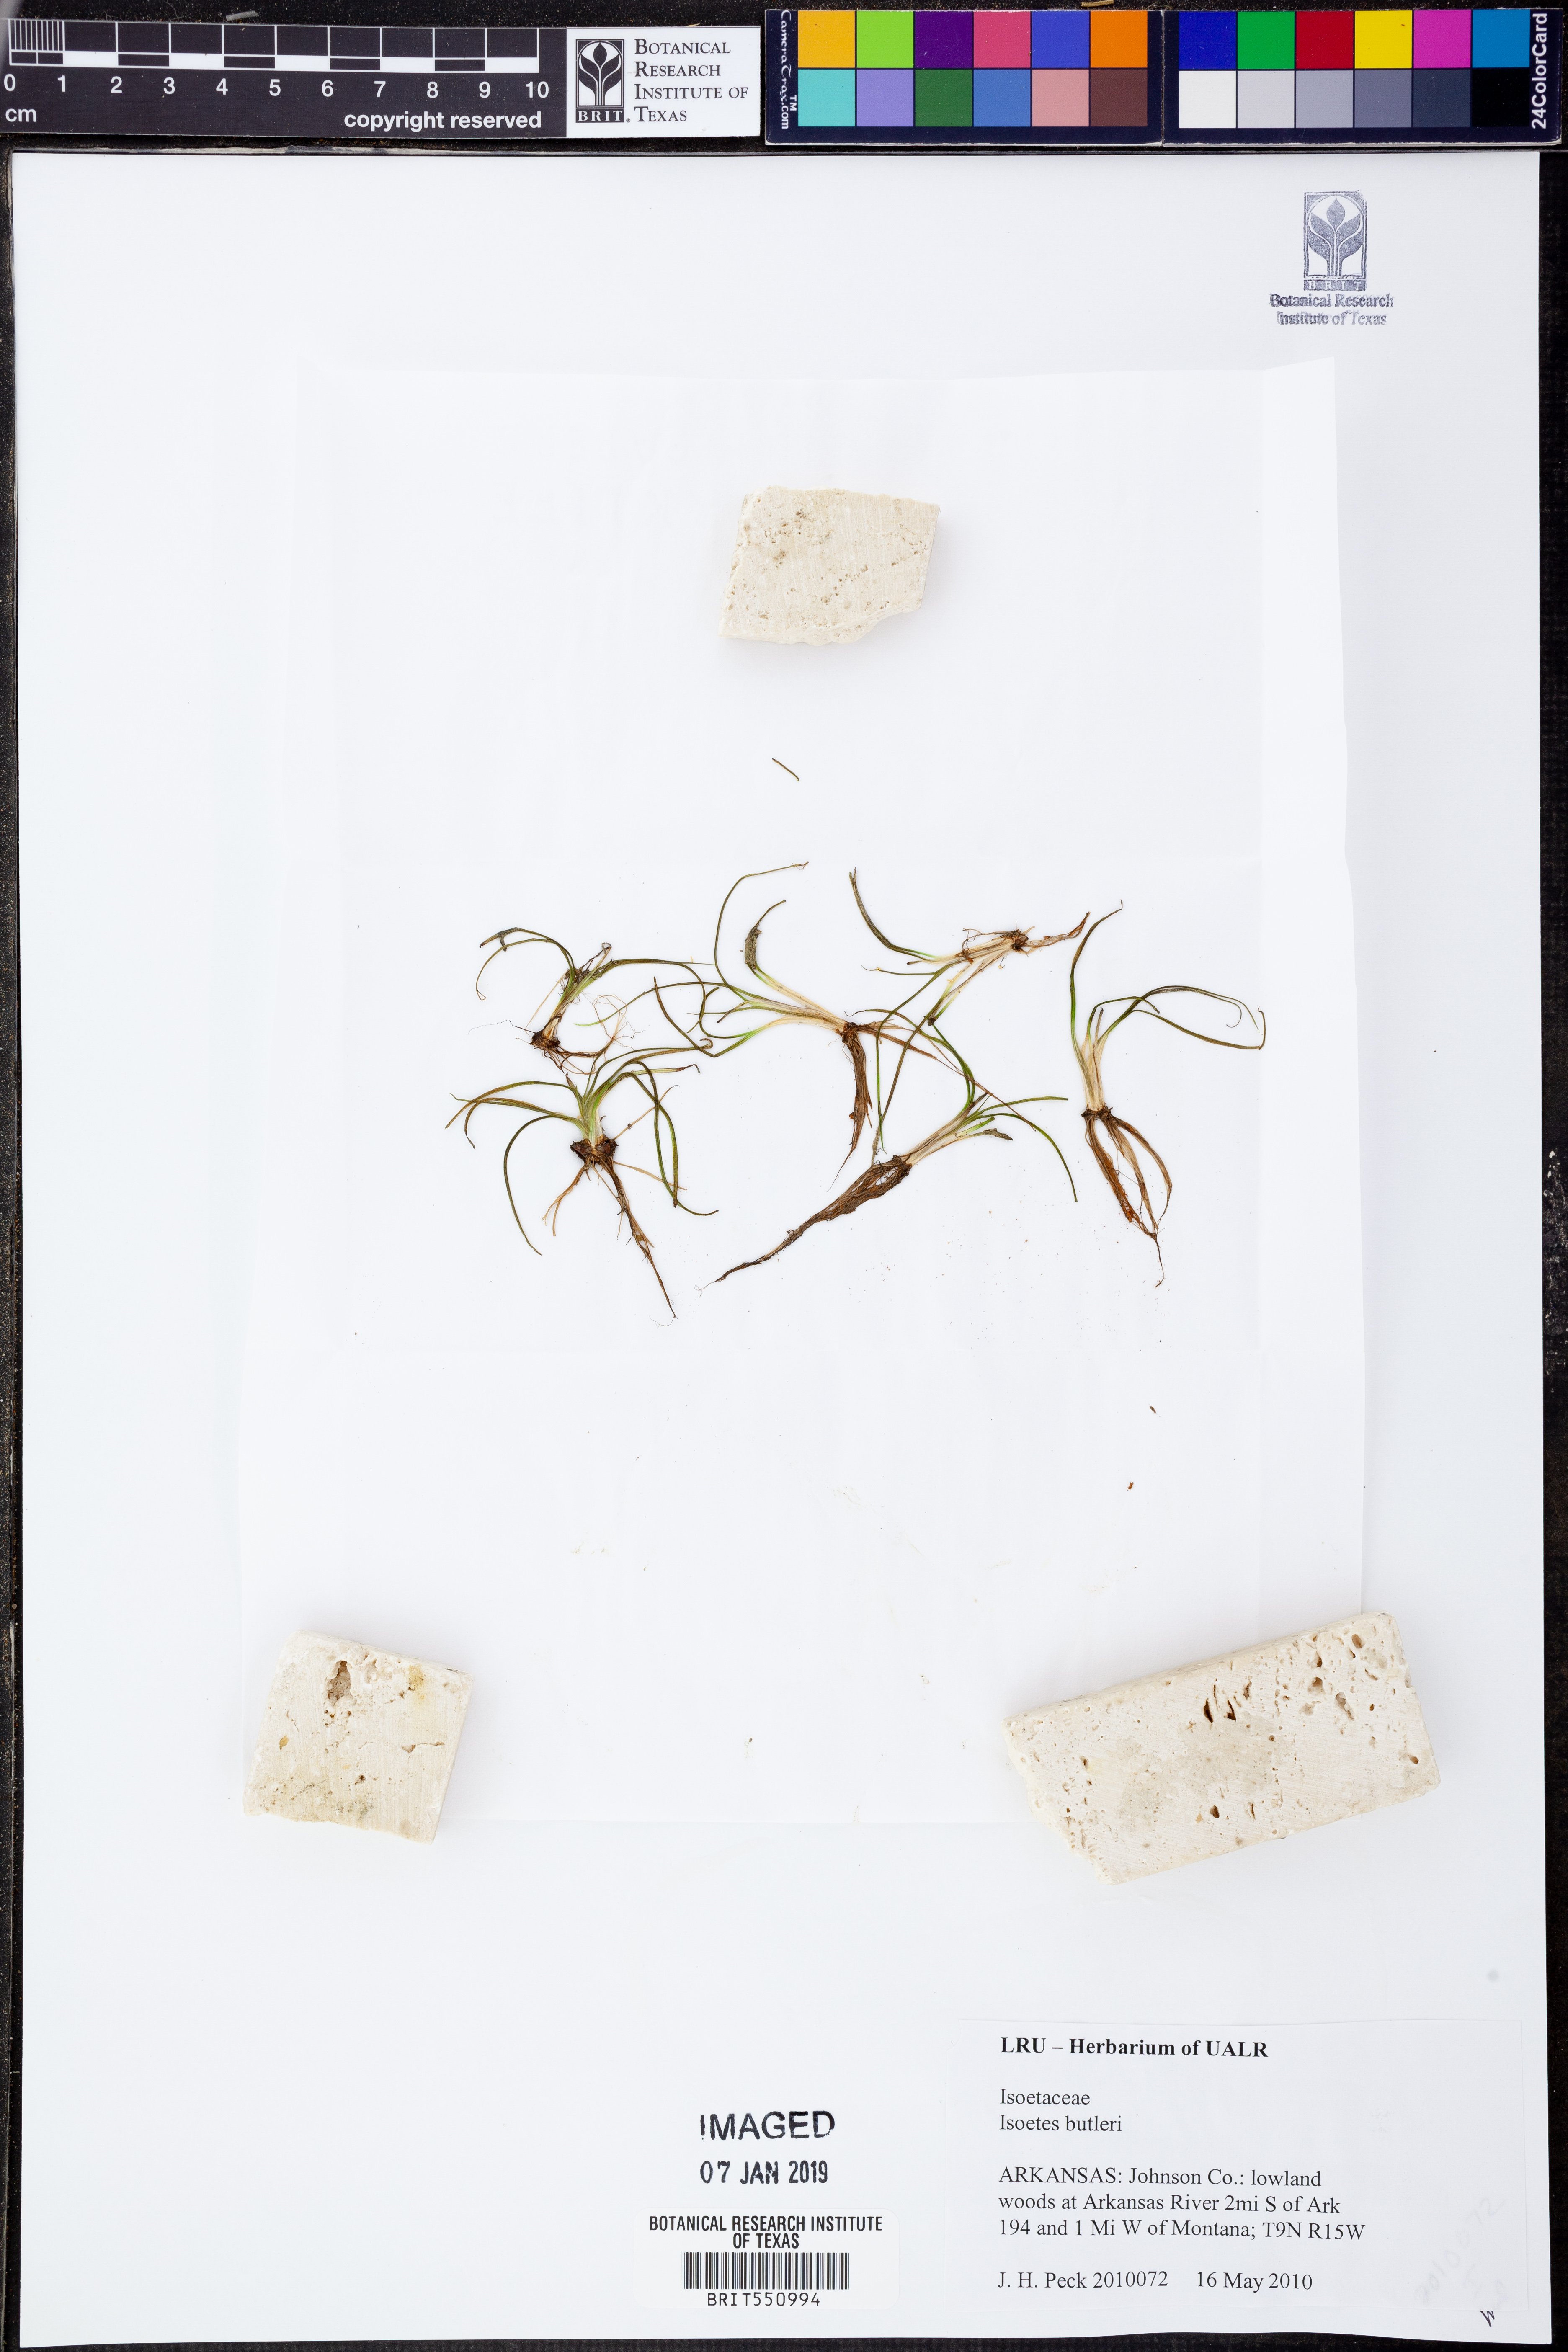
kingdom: Plantae
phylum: Tracheophyta
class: Lycopodiopsida
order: Isoetales
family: Isoetaceae
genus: Isoetes
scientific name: Isoetes butleri
